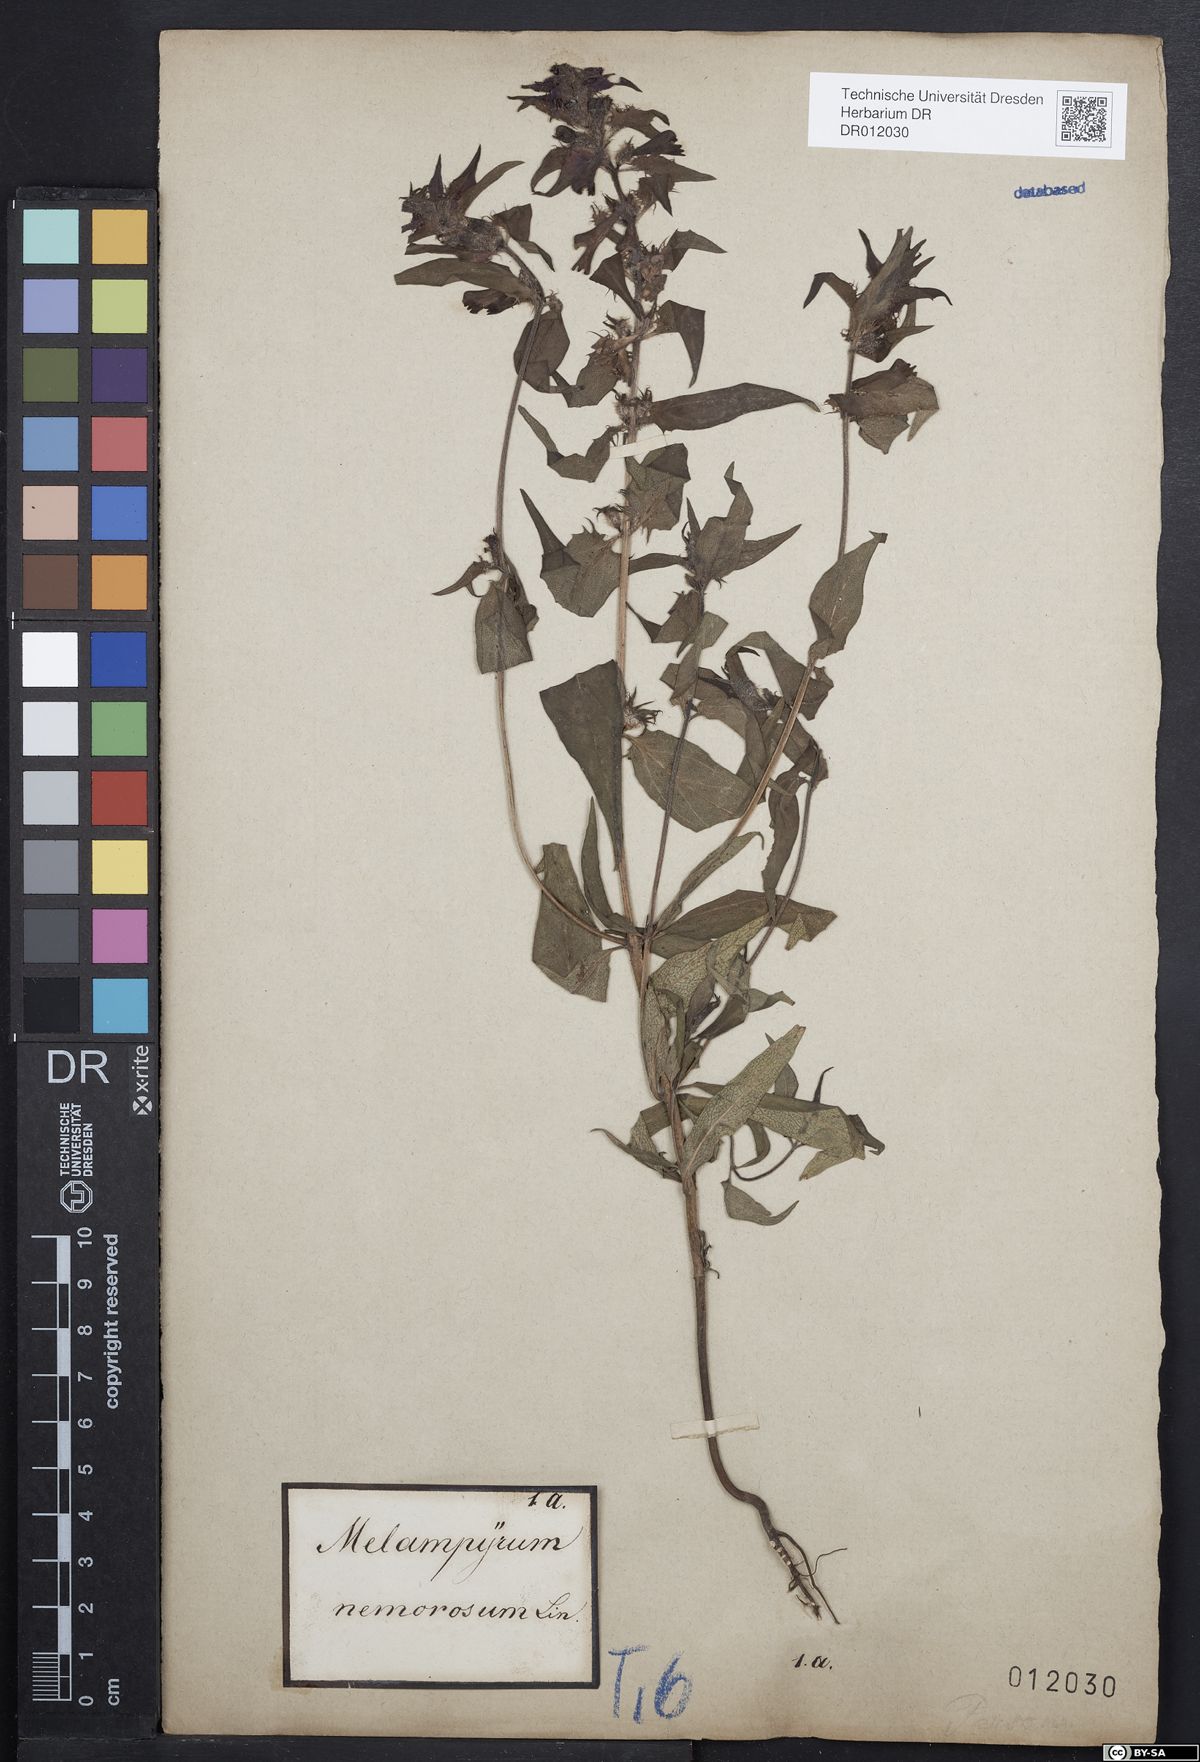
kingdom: Plantae
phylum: Tracheophyta
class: Magnoliopsida
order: Lamiales
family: Orobanchaceae
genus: Melampyrum
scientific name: Melampyrum nemorosum
